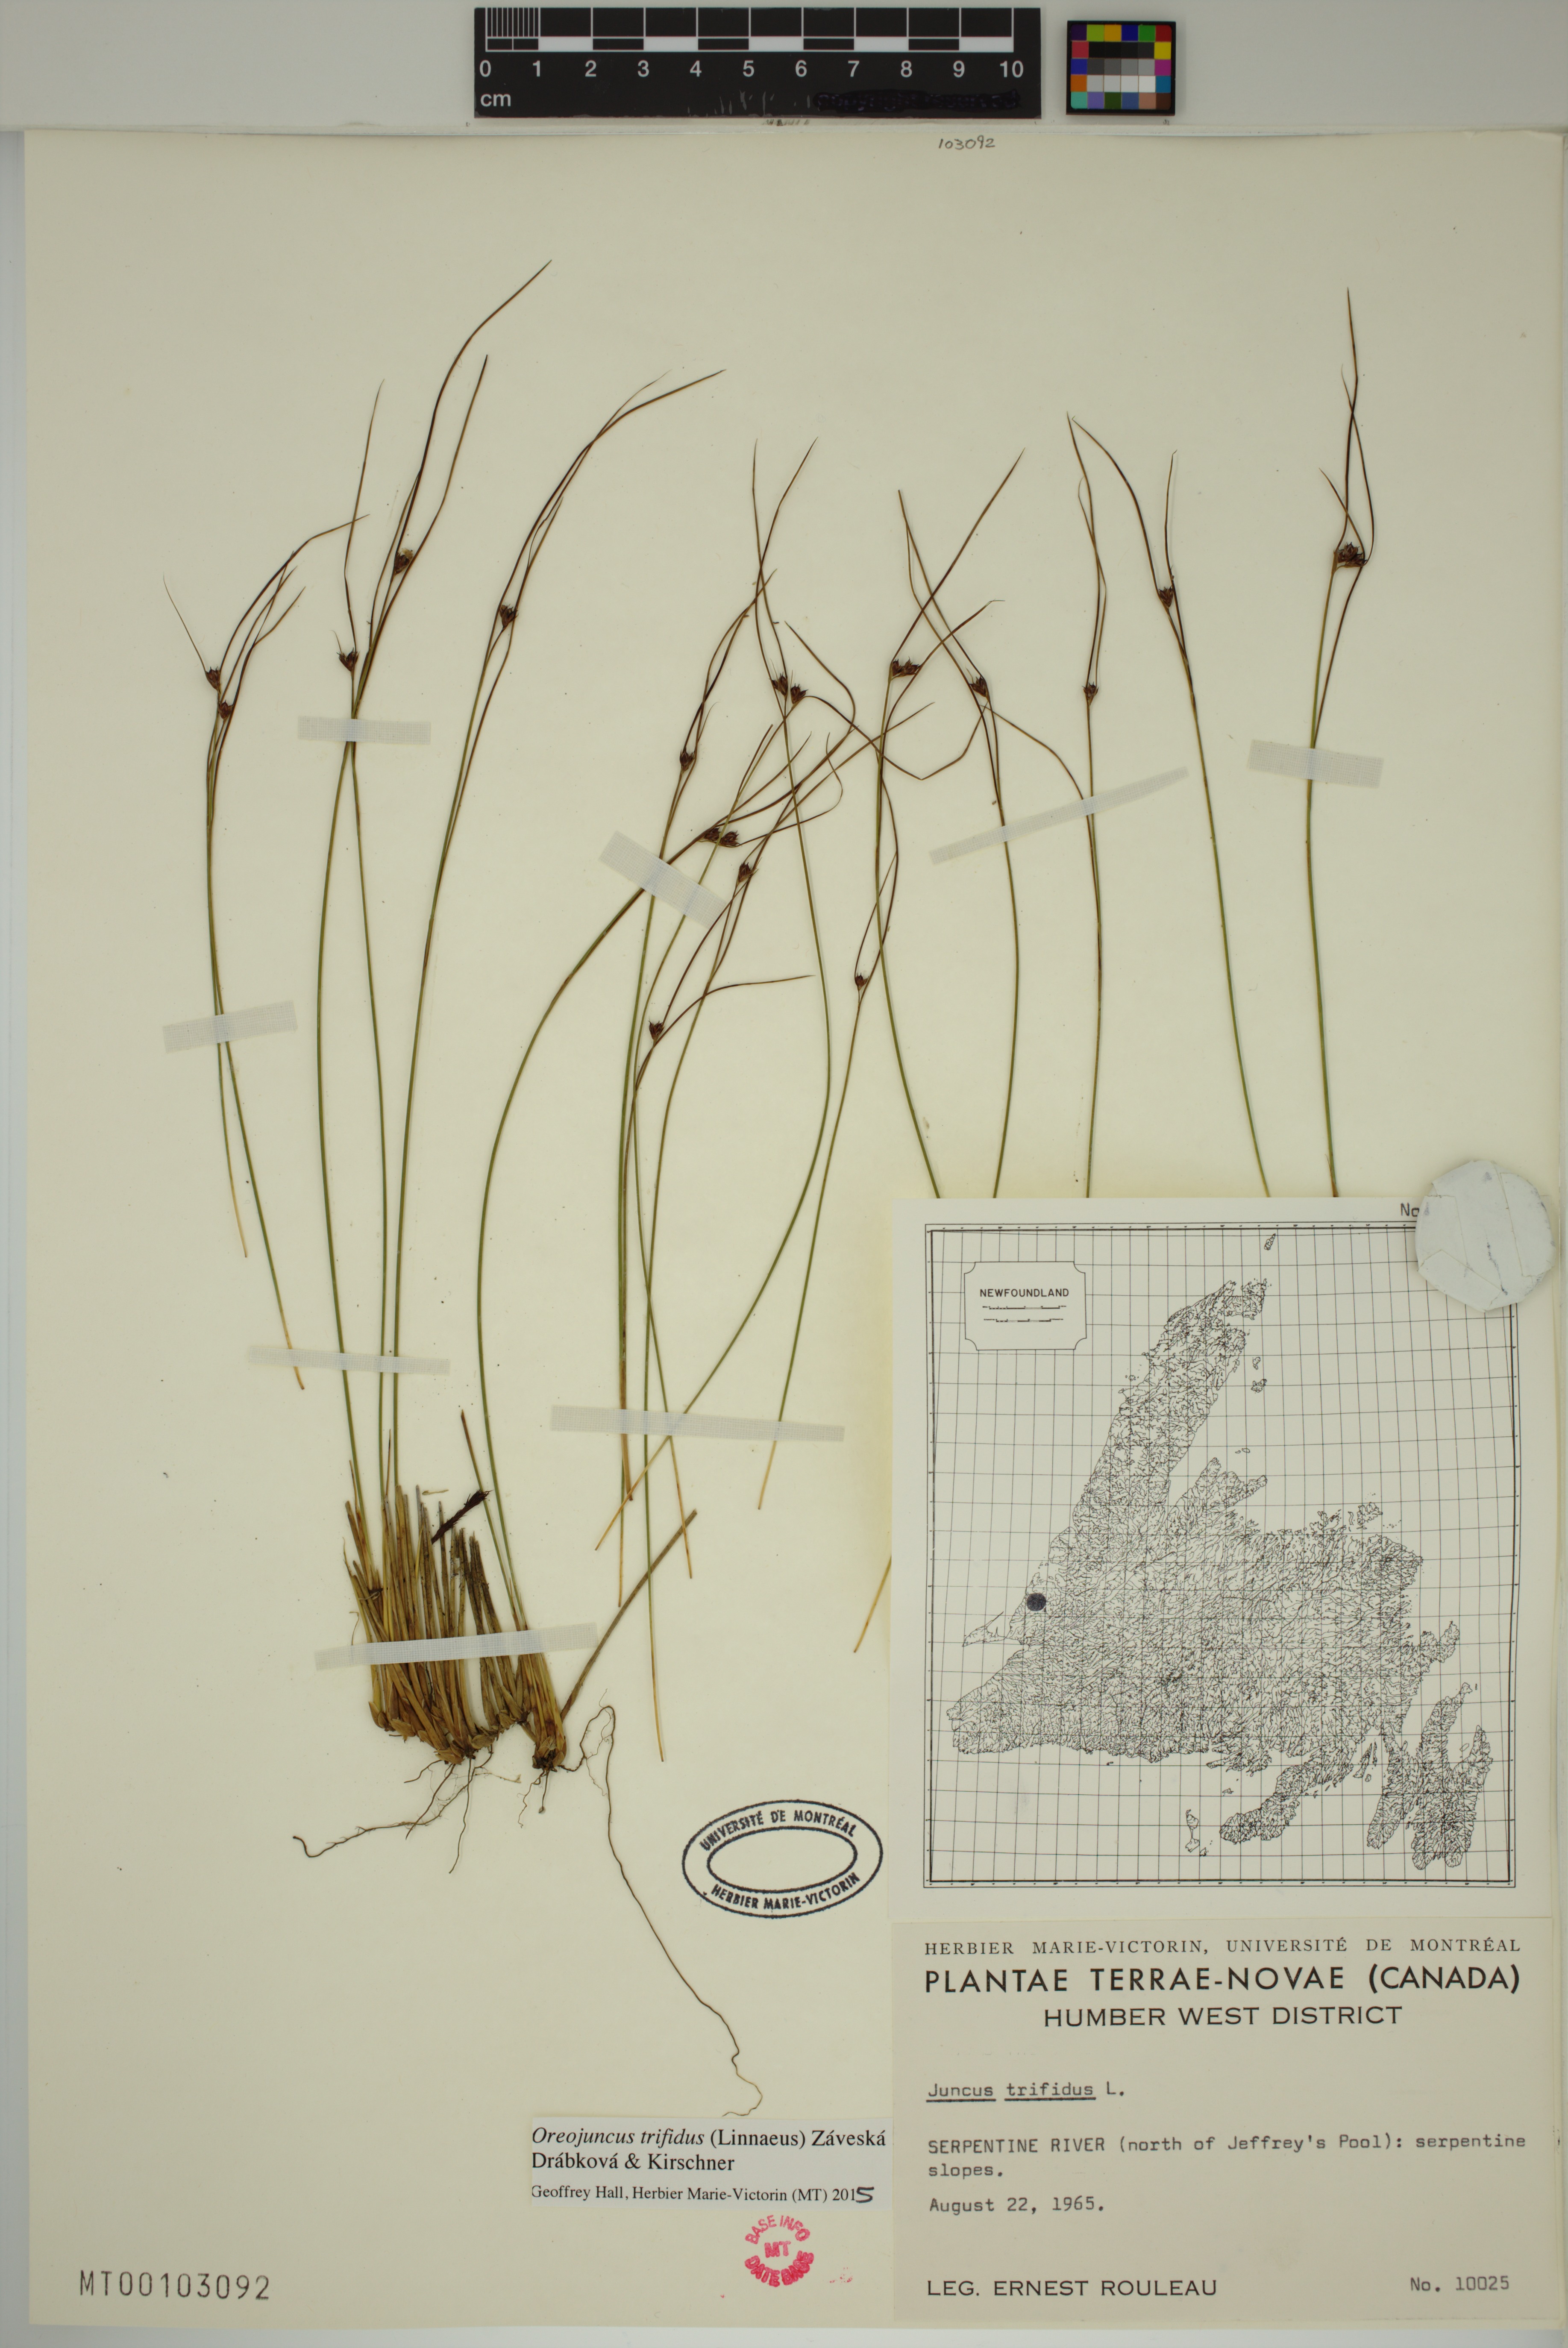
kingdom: Plantae
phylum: Tracheophyta
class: Liliopsida
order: Poales
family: Juncaceae
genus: Oreojuncus
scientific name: Oreojuncus trifidus
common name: Highland rush
